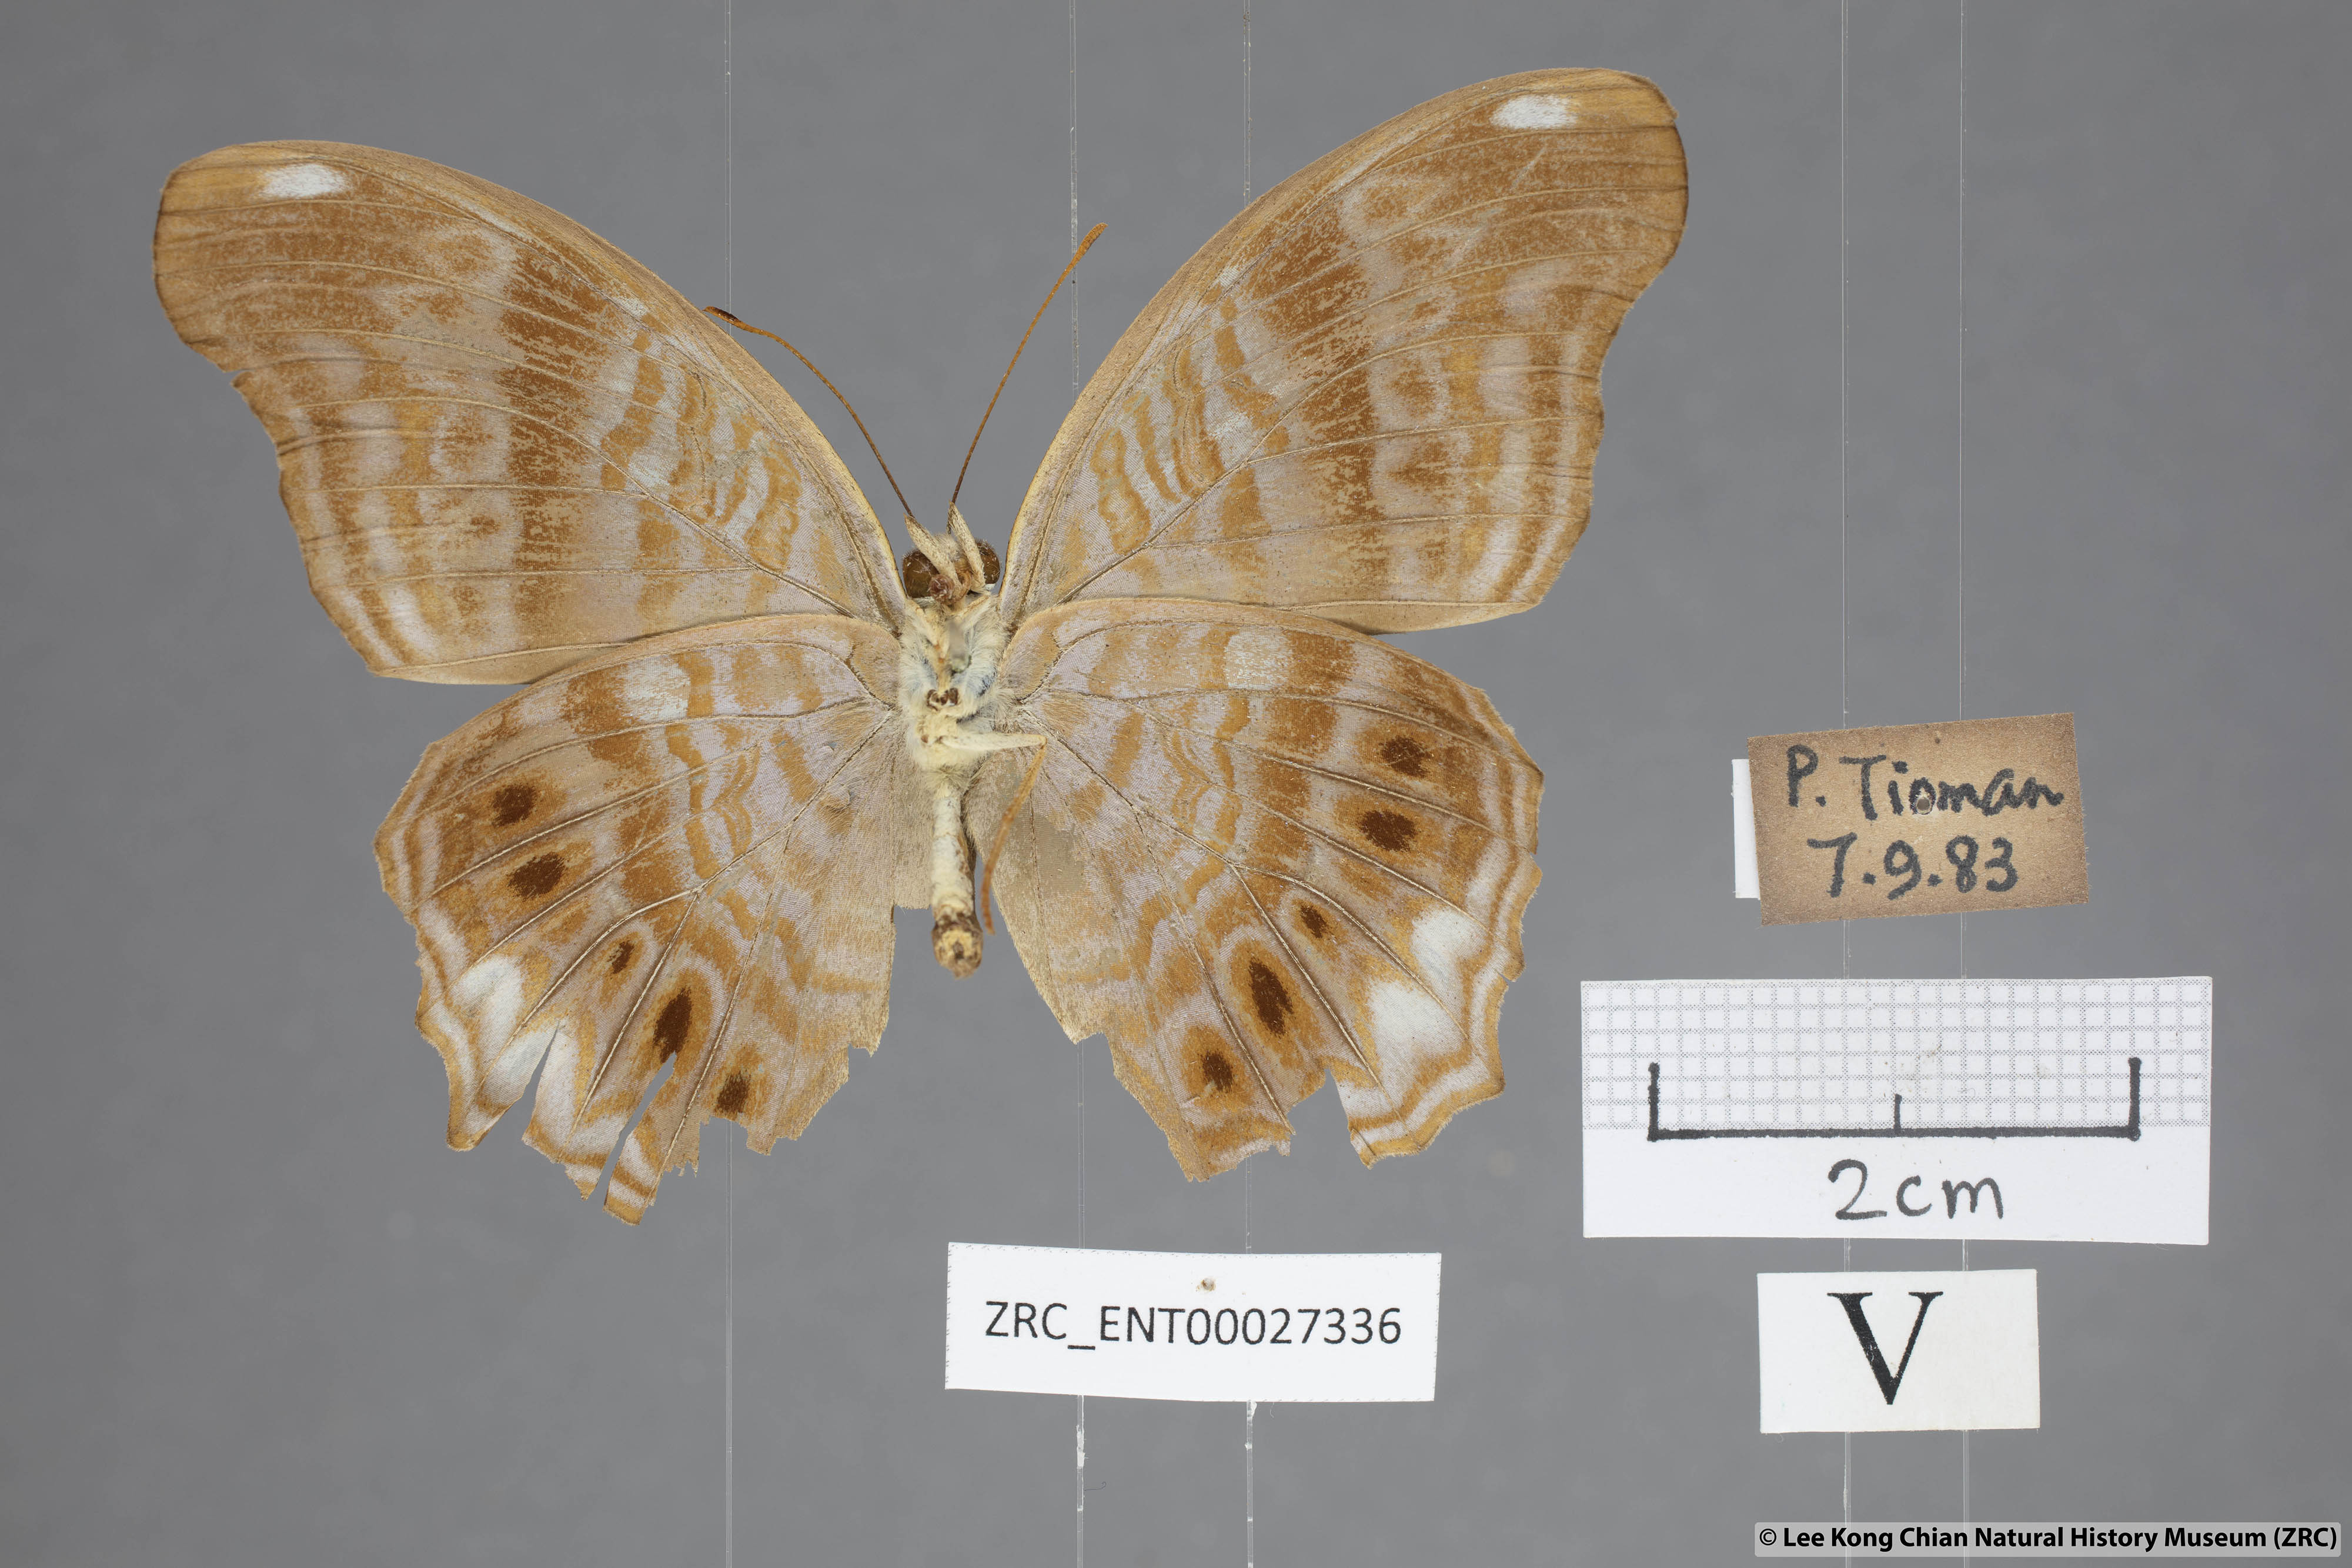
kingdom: Animalia
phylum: Arthropoda
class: Insecta
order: Lepidoptera
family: Nymphalidae
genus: Terinos
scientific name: Terinos terpander
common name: Royal assyrian
